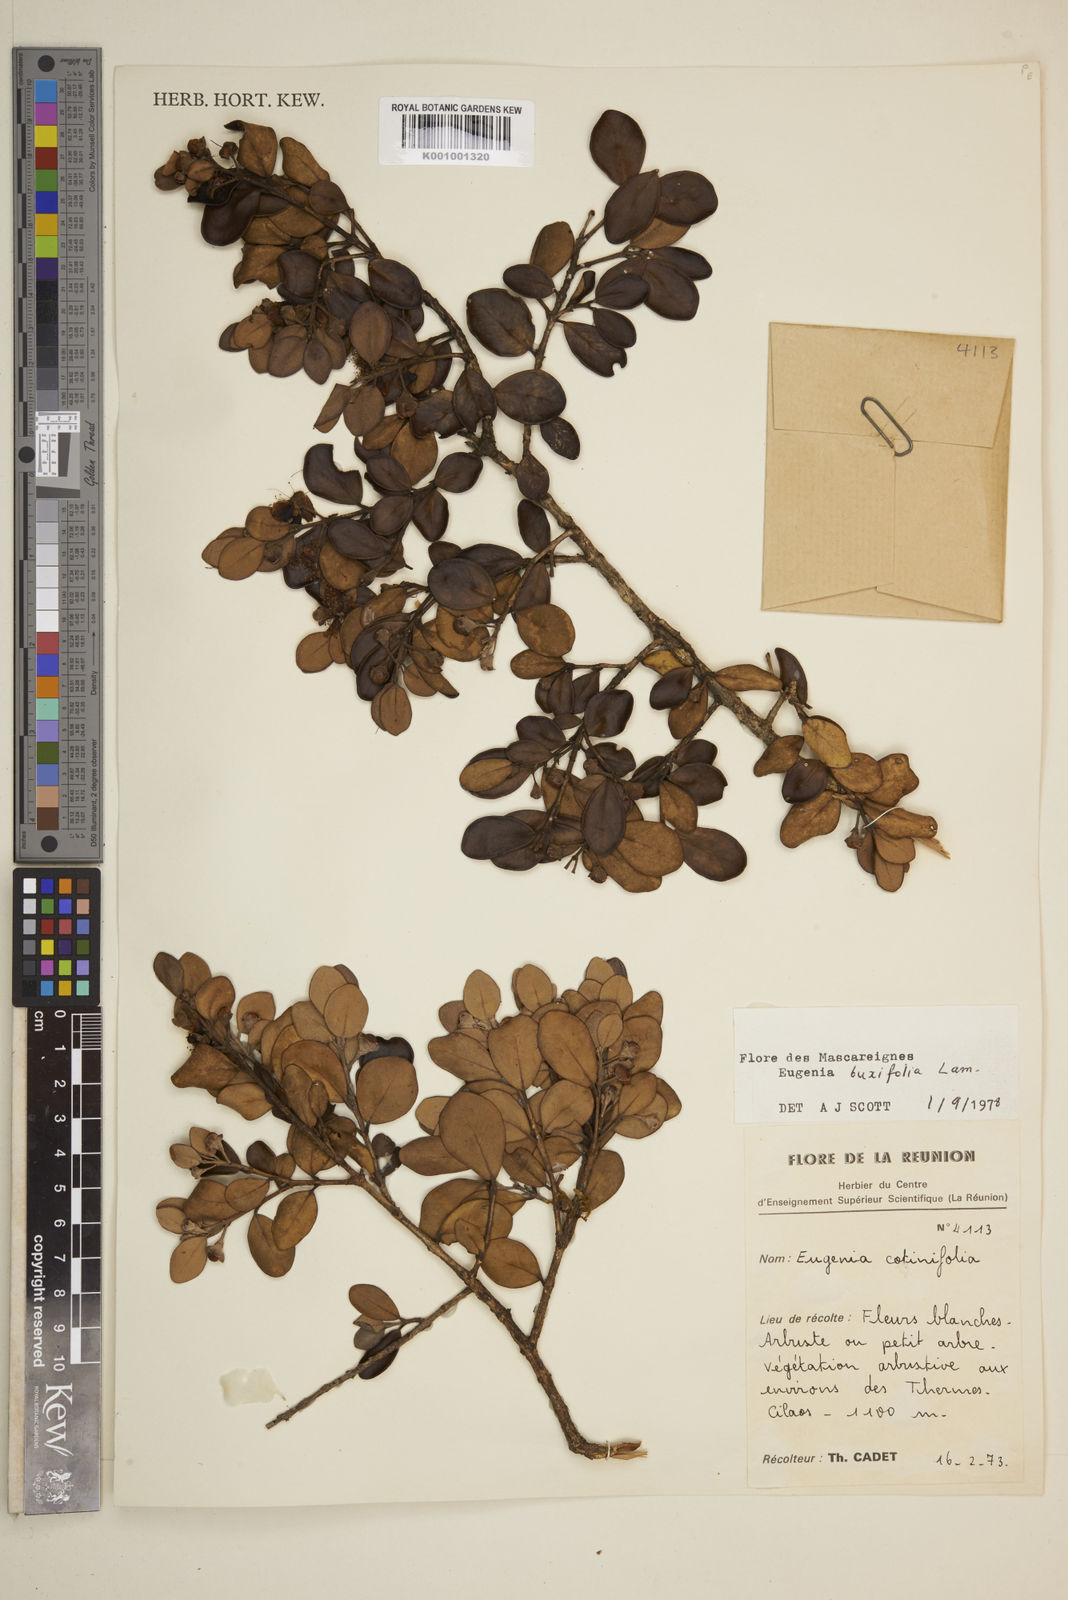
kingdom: Plantae
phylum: Tracheophyta
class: Magnoliopsida
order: Myrtales
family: Myrtaceae
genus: Eugenia
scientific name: Eugenia buxifolia
